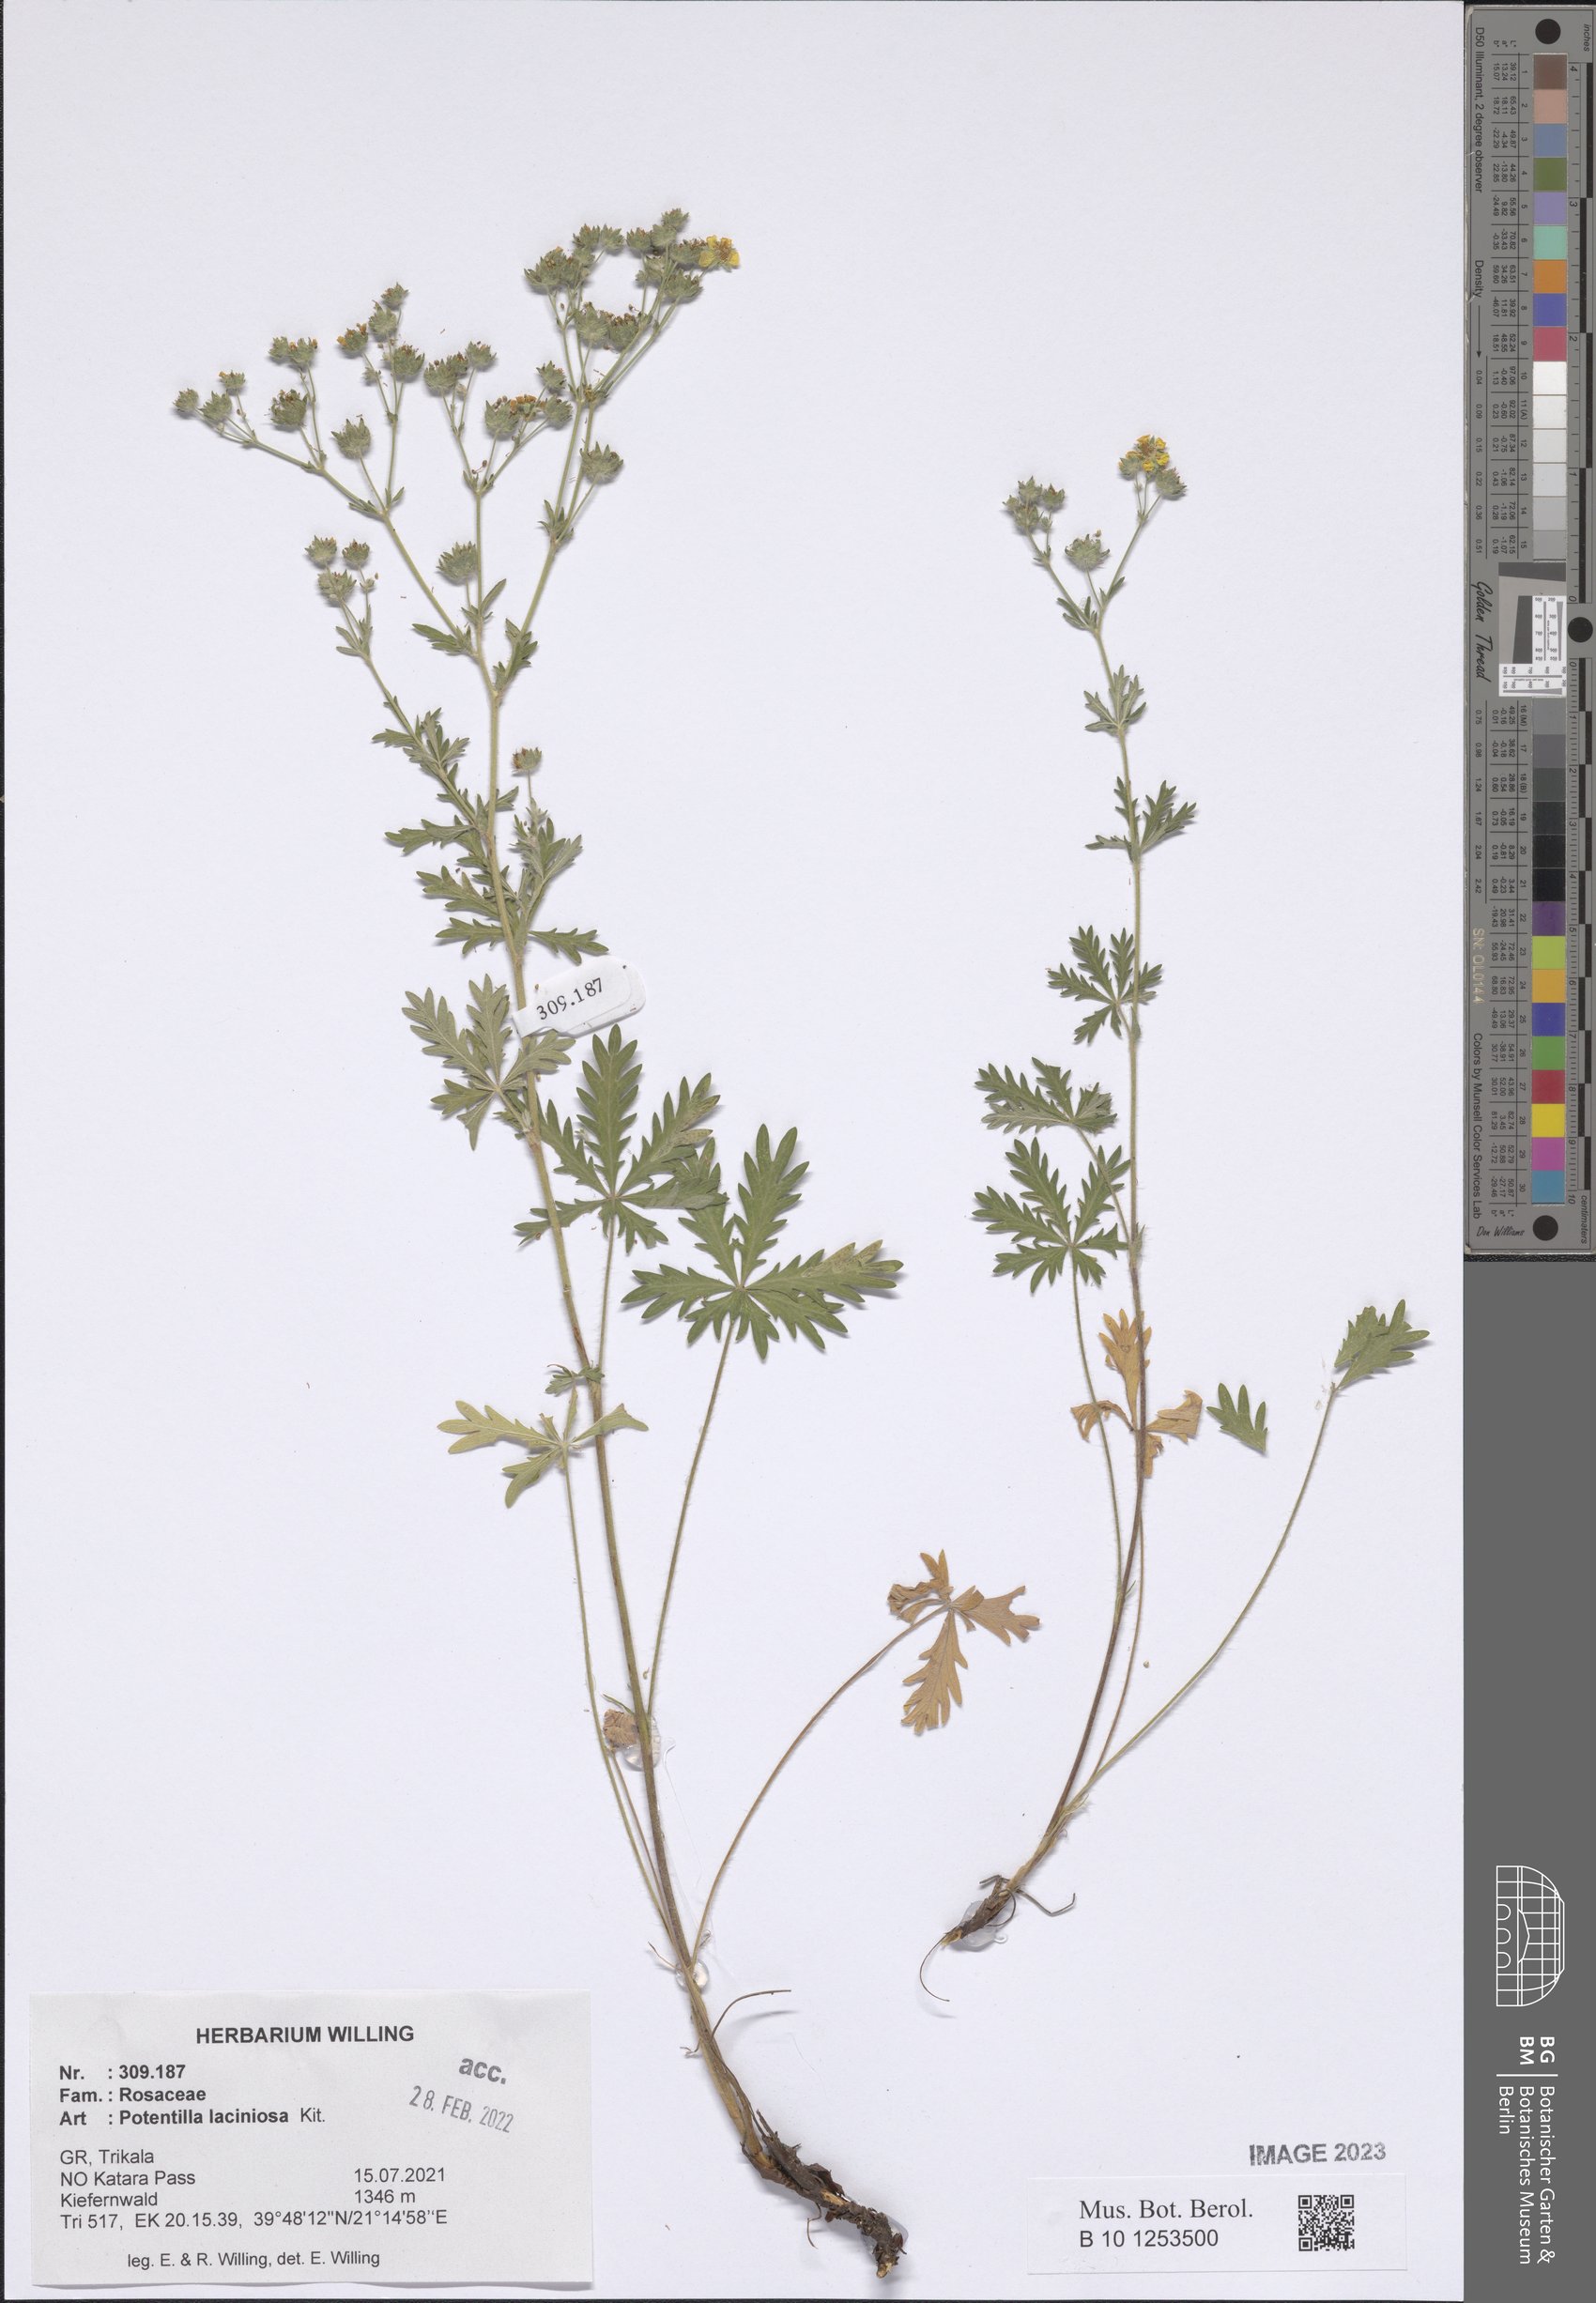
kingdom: Plantae
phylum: Tracheophyta
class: Magnoliopsida
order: Rosales
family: Rosaceae
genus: Potentilla
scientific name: Potentilla recta
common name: Sulphur cinquefoil
